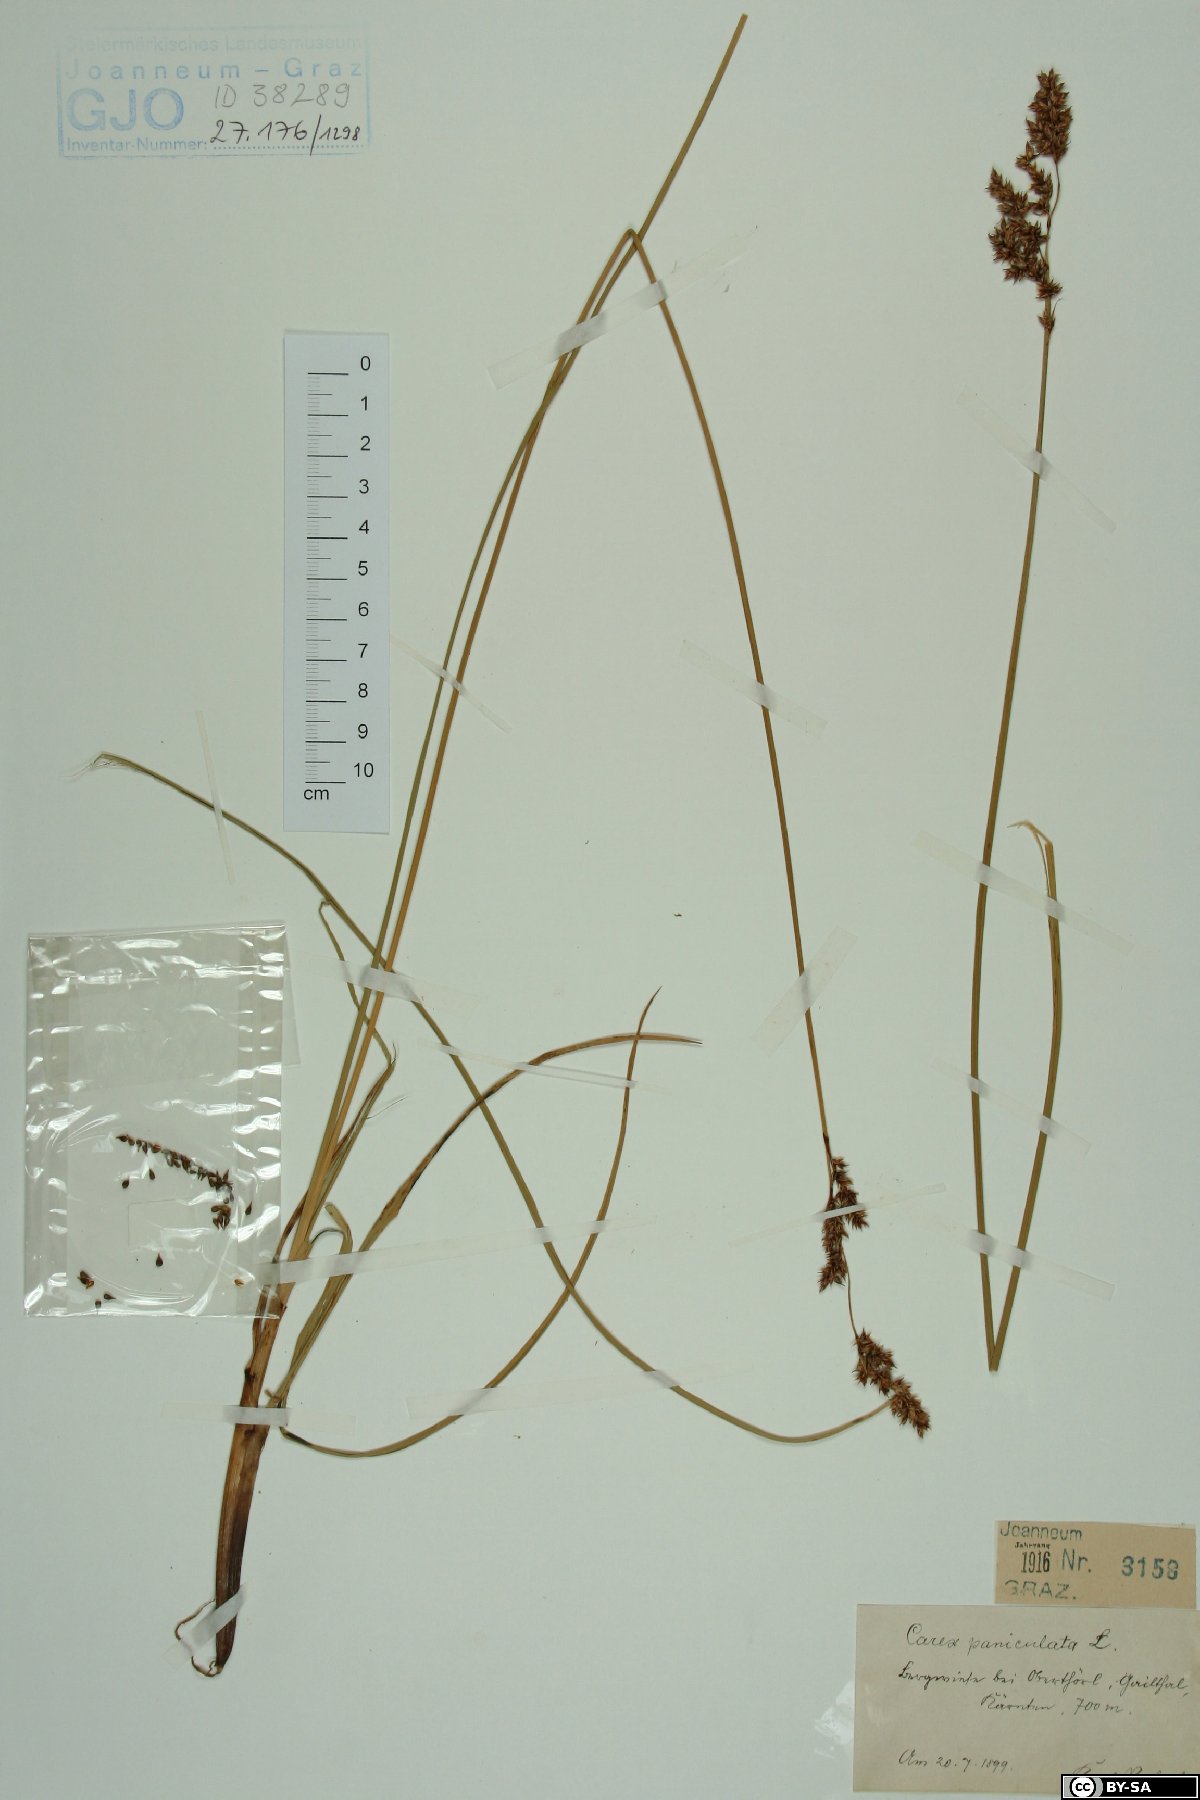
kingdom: Plantae
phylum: Tracheophyta
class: Liliopsida
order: Poales
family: Cyperaceae
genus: Carex
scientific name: Carex paniculata
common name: Greater tussock-sedge
